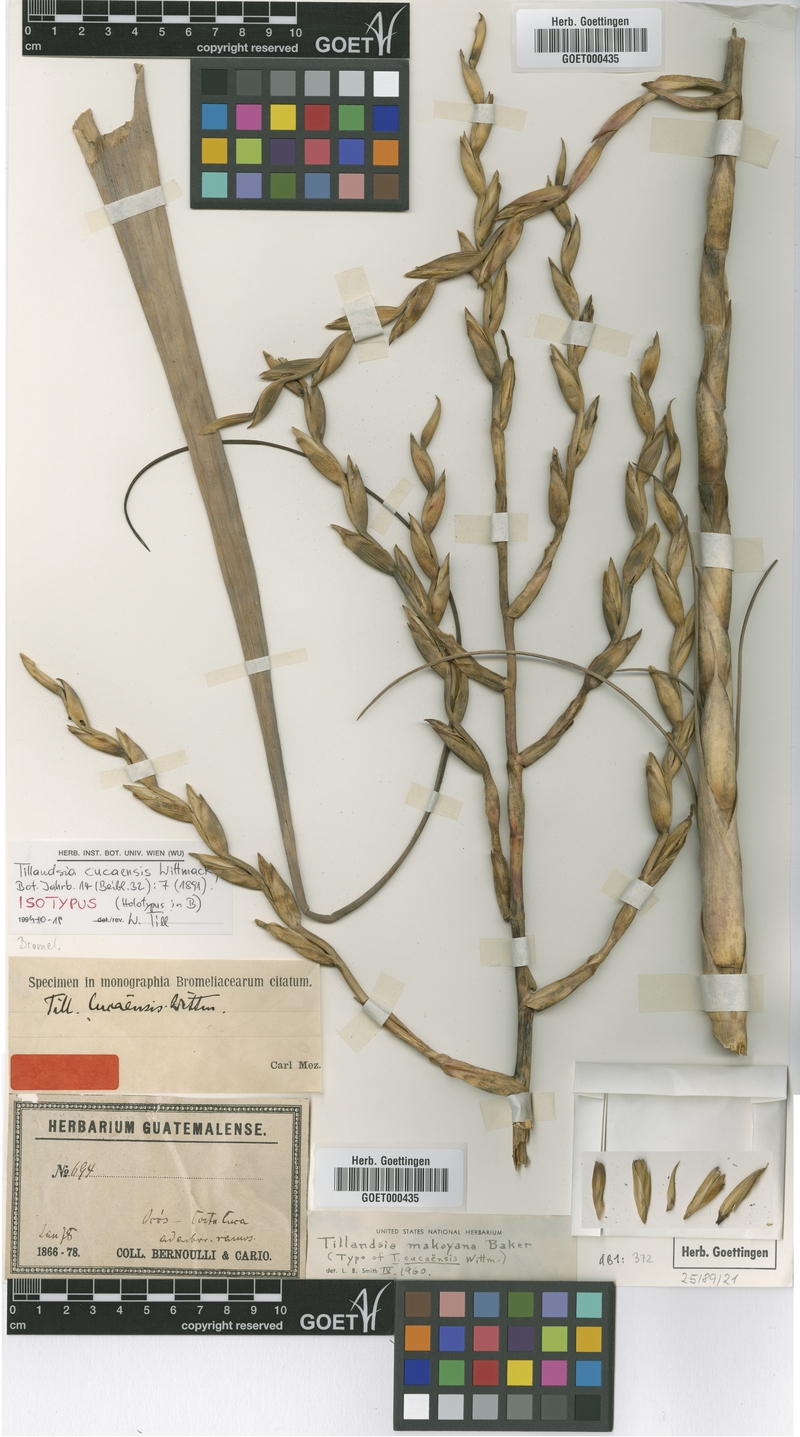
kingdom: Plantae
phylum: Tracheophyta
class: Liliopsida
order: Poales
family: Bromeliaceae
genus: Tillandsia
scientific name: Tillandsia makoyana
